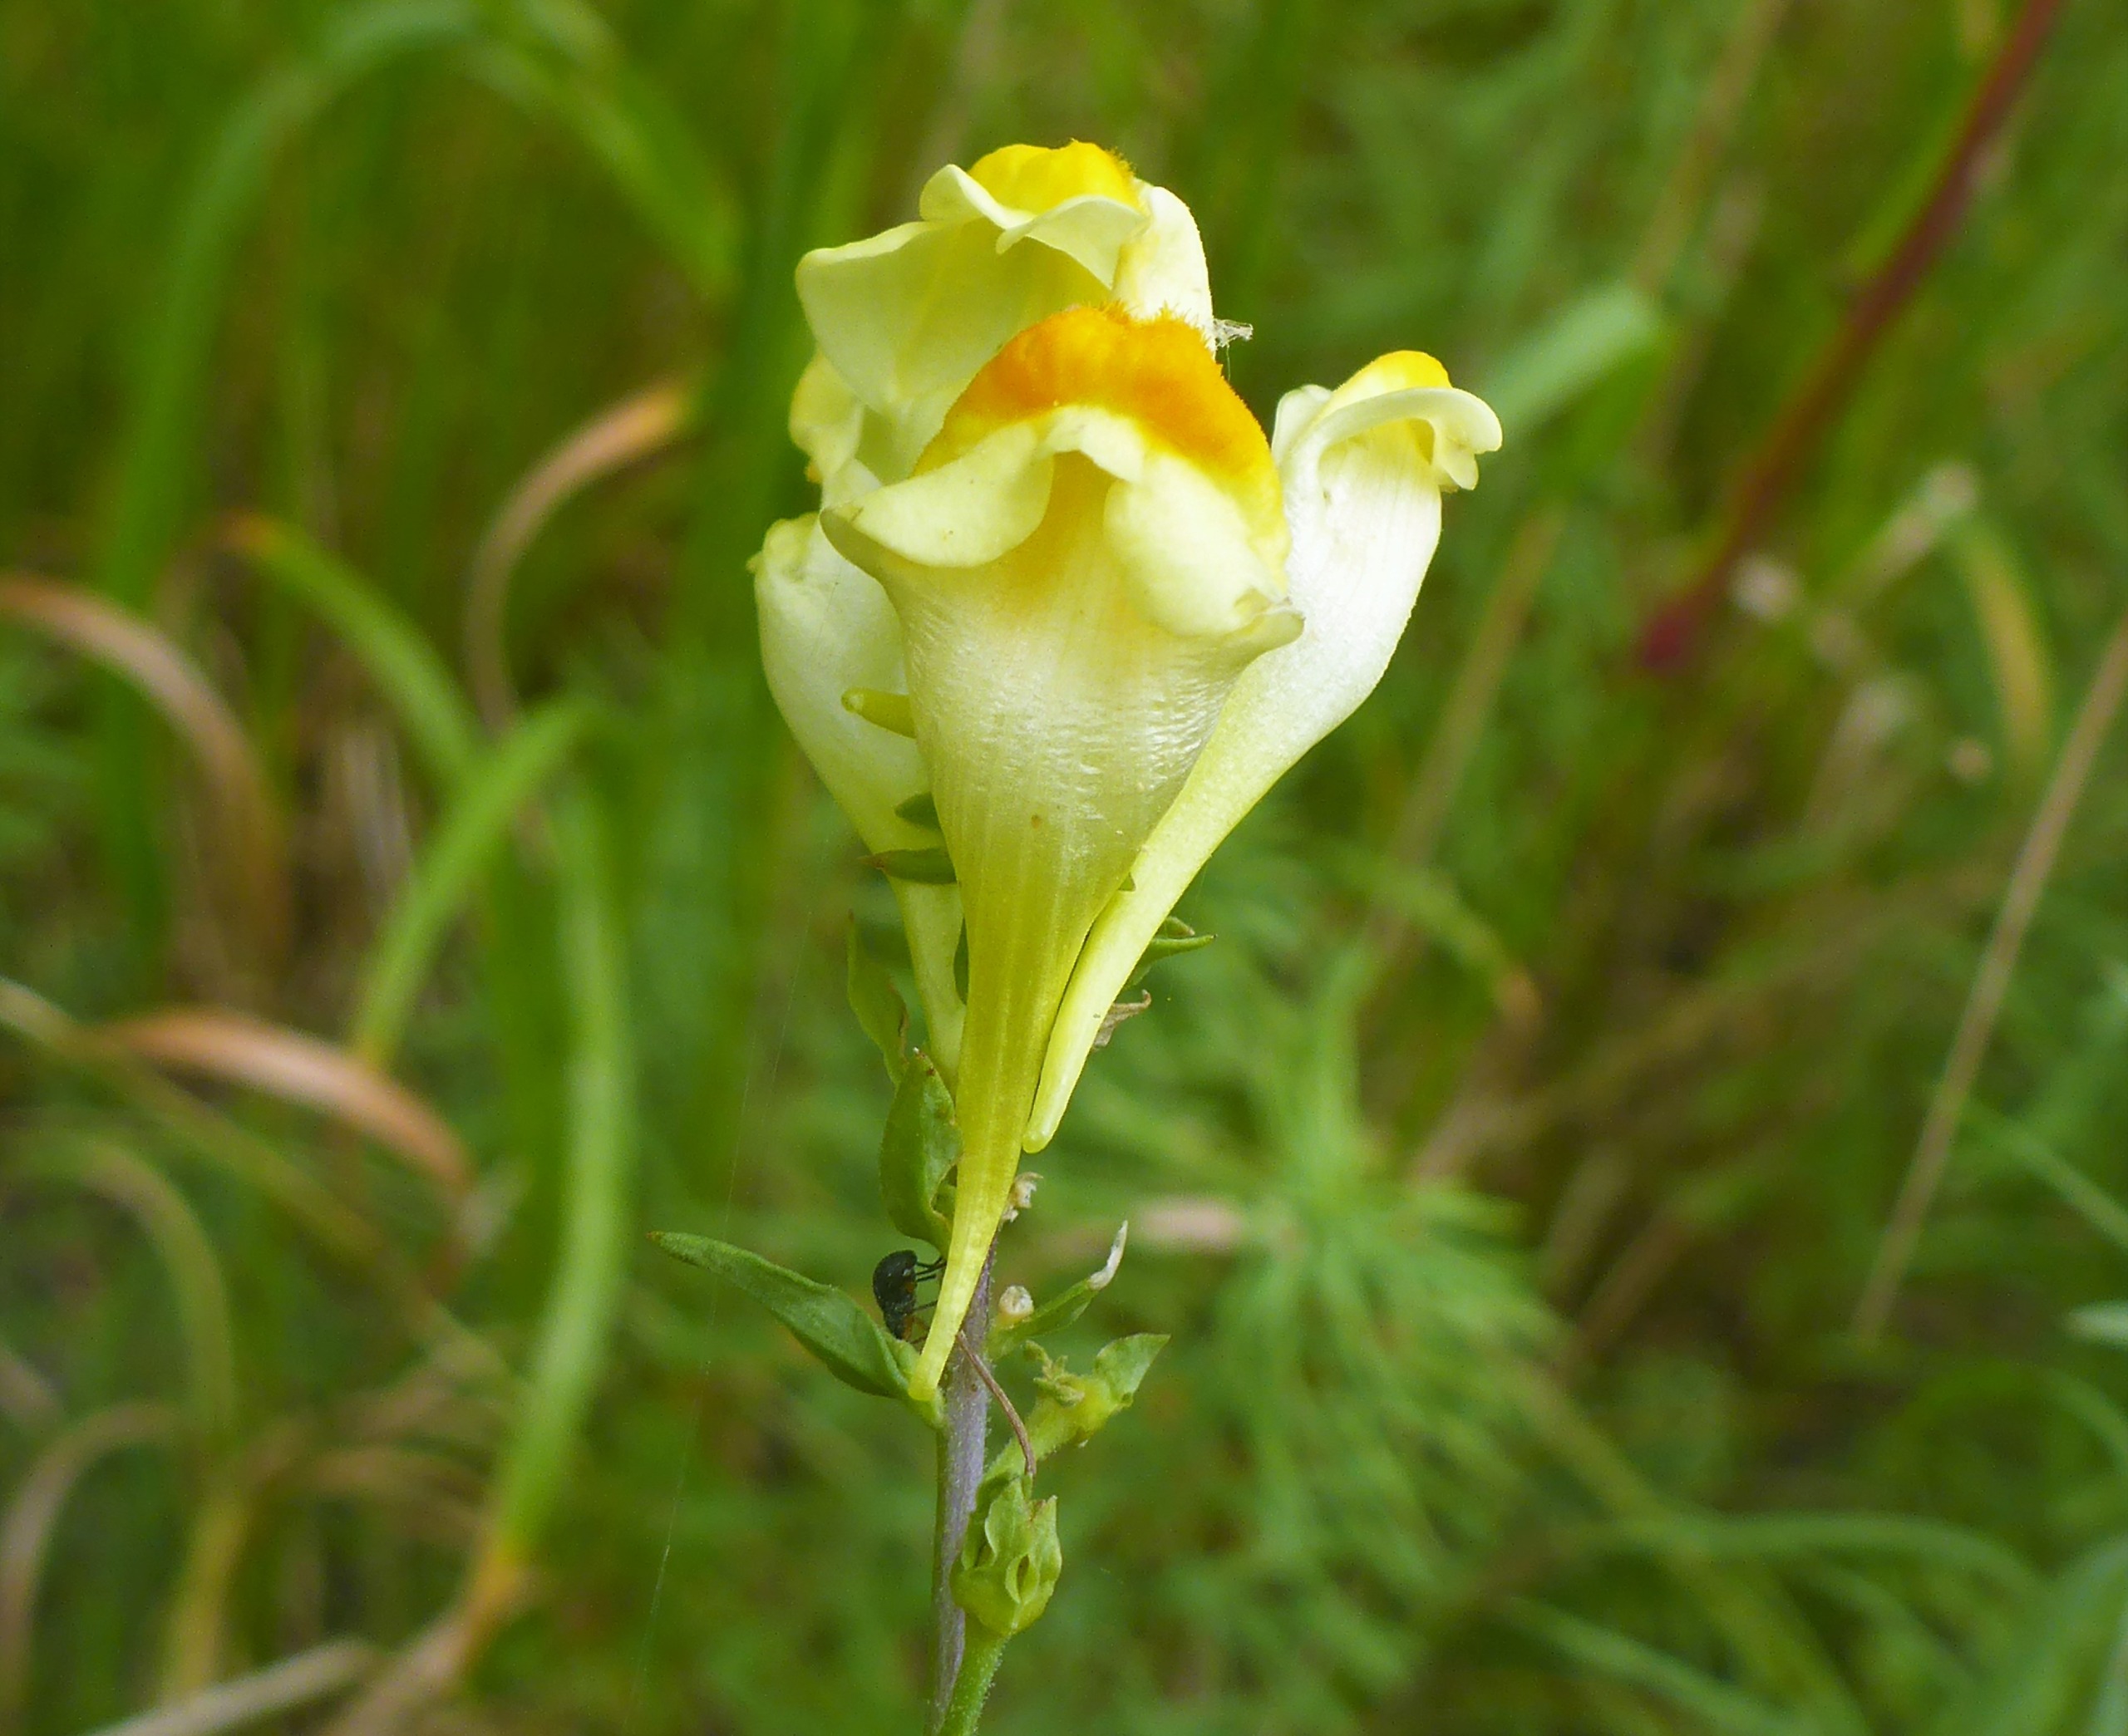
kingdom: Plantae
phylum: Tracheophyta
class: Magnoliopsida
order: Lamiales
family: Plantaginaceae
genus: Linaria
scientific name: Linaria vulgaris
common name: Almindelig torskemund
